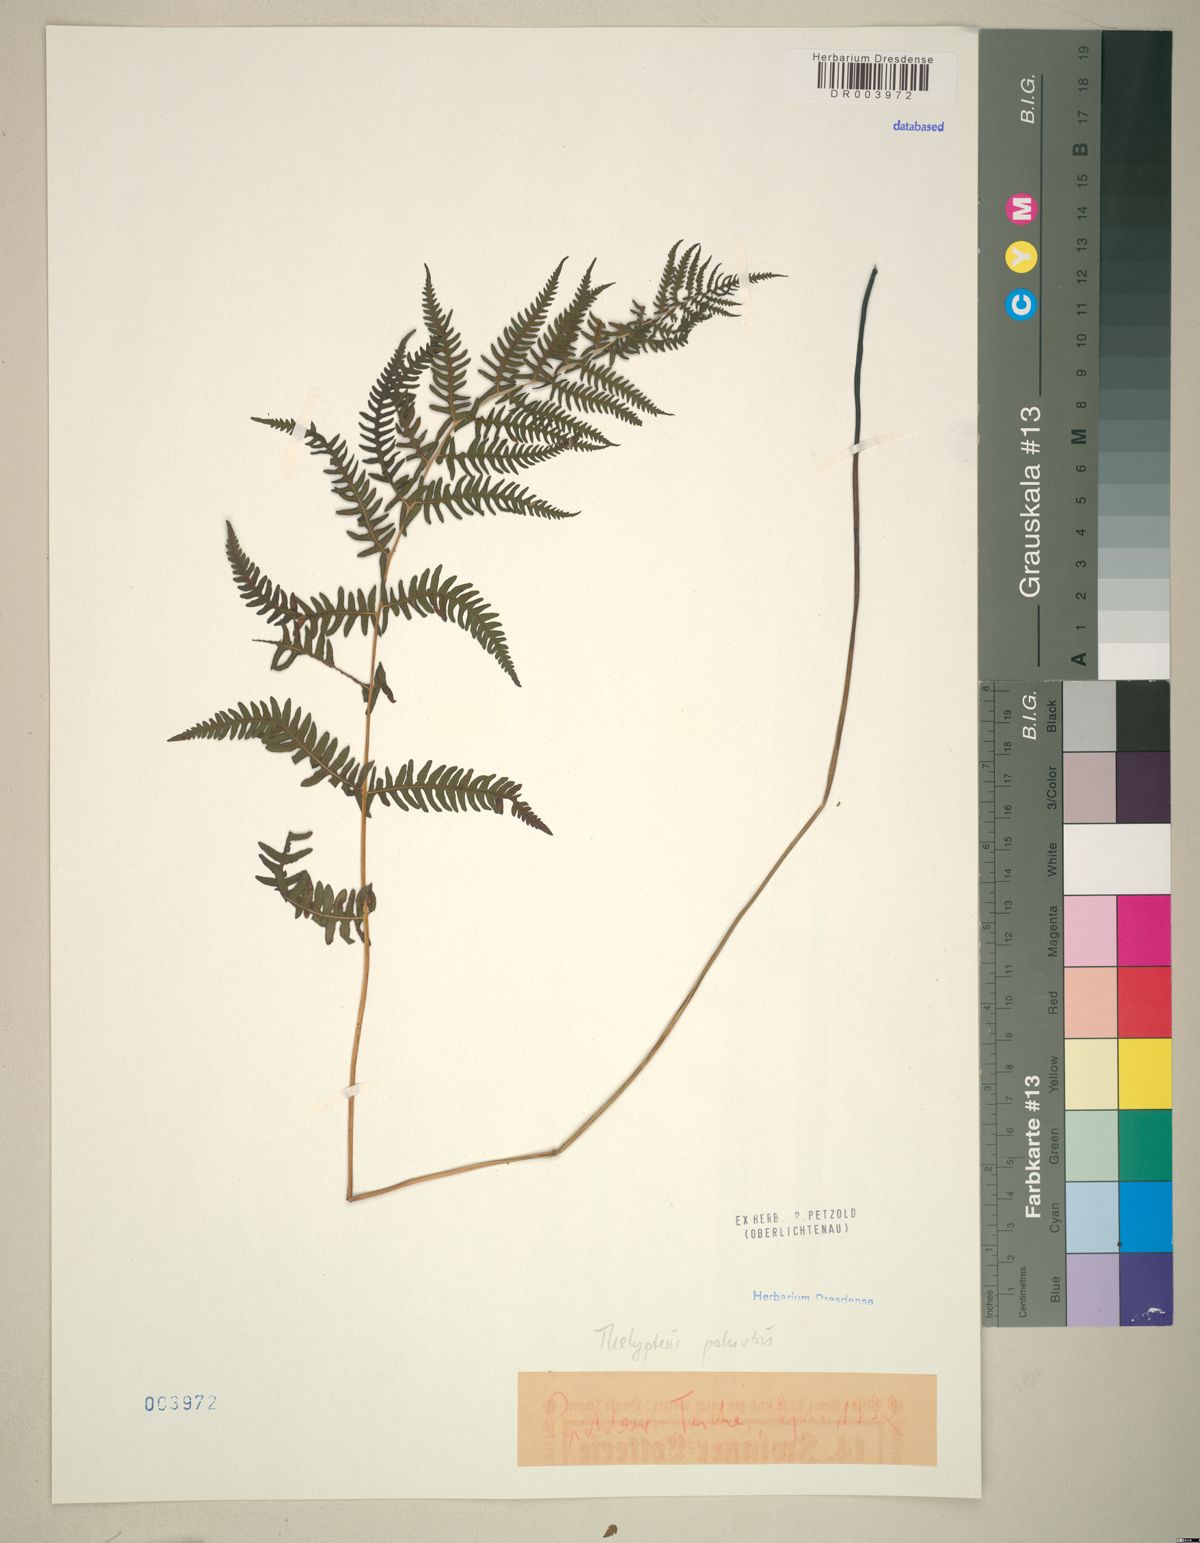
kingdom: Plantae
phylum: Tracheophyta
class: Polypodiopsida
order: Polypodiales
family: Thelypteridaceae
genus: Thelypteris
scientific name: Thelypteris palustris
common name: Marsh fern
